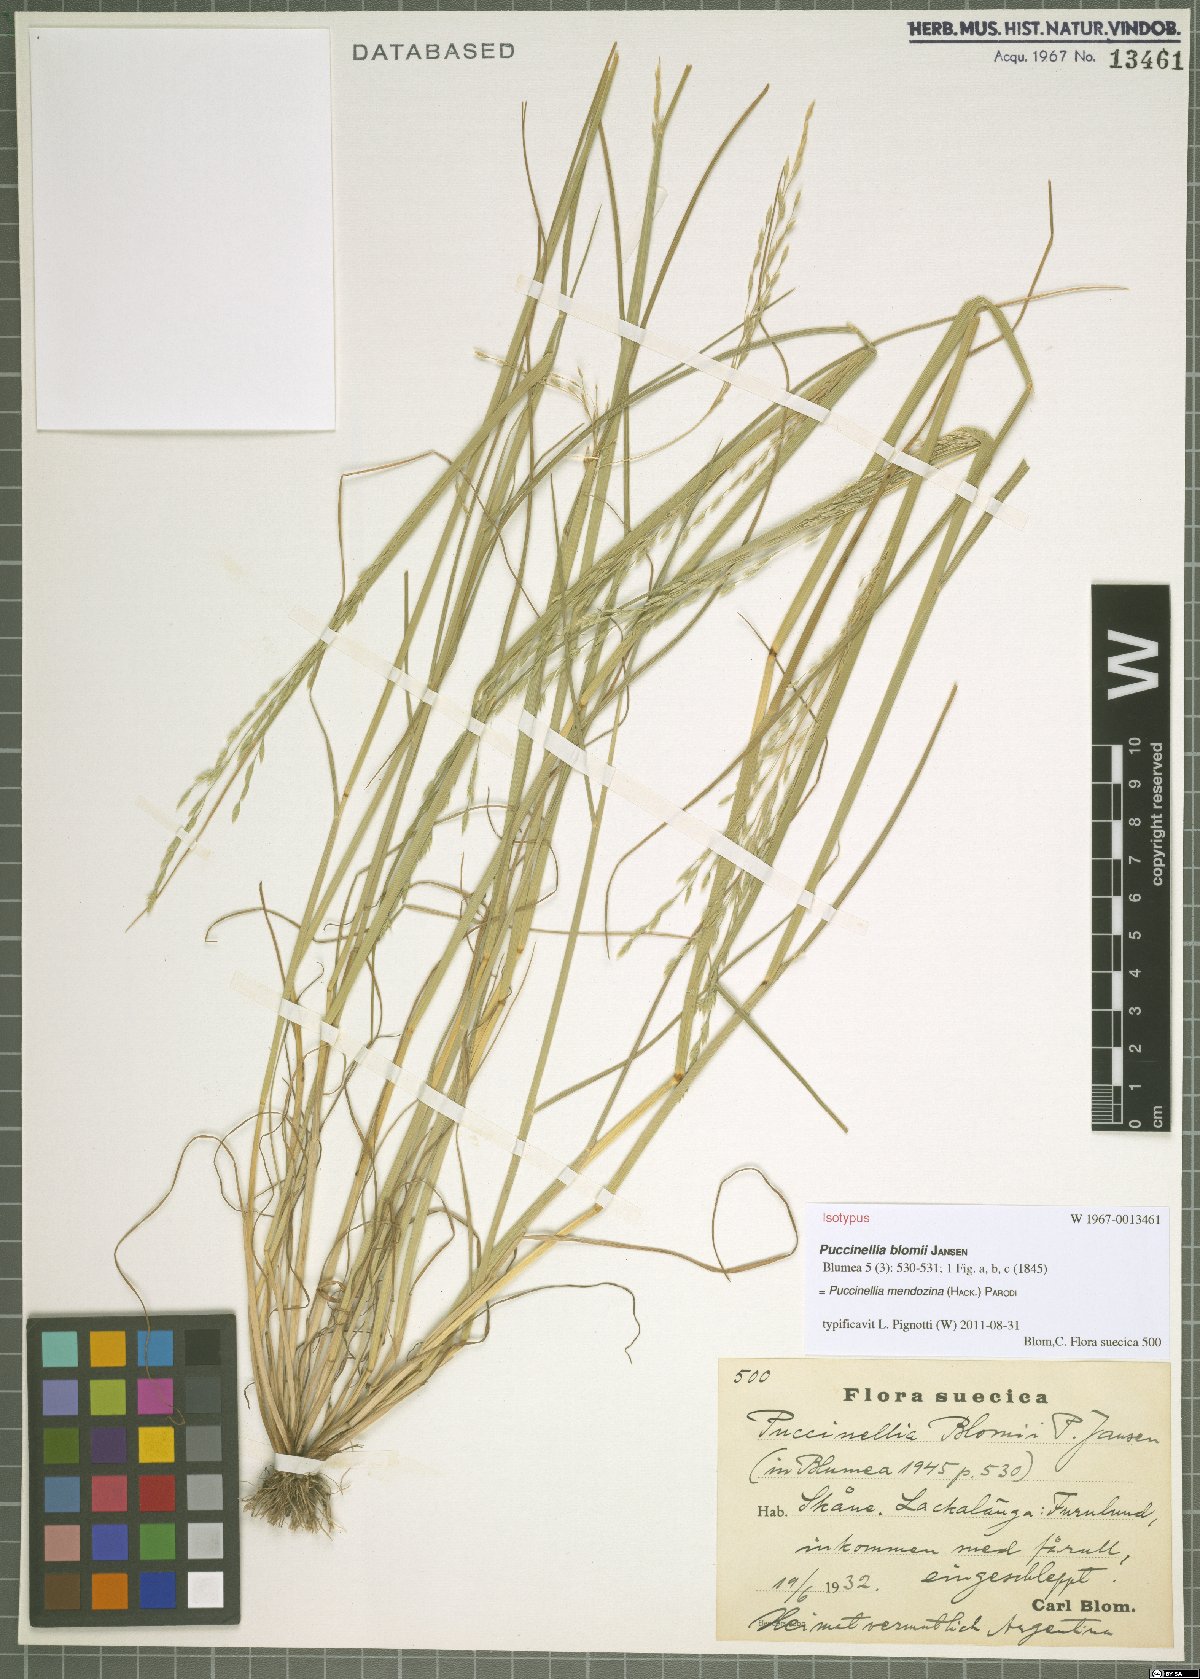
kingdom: Plantae
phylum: Tracheophyta
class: Liliopsida
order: Poales
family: Poaceae
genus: Puccinellia
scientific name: Puccinellia mendozina
